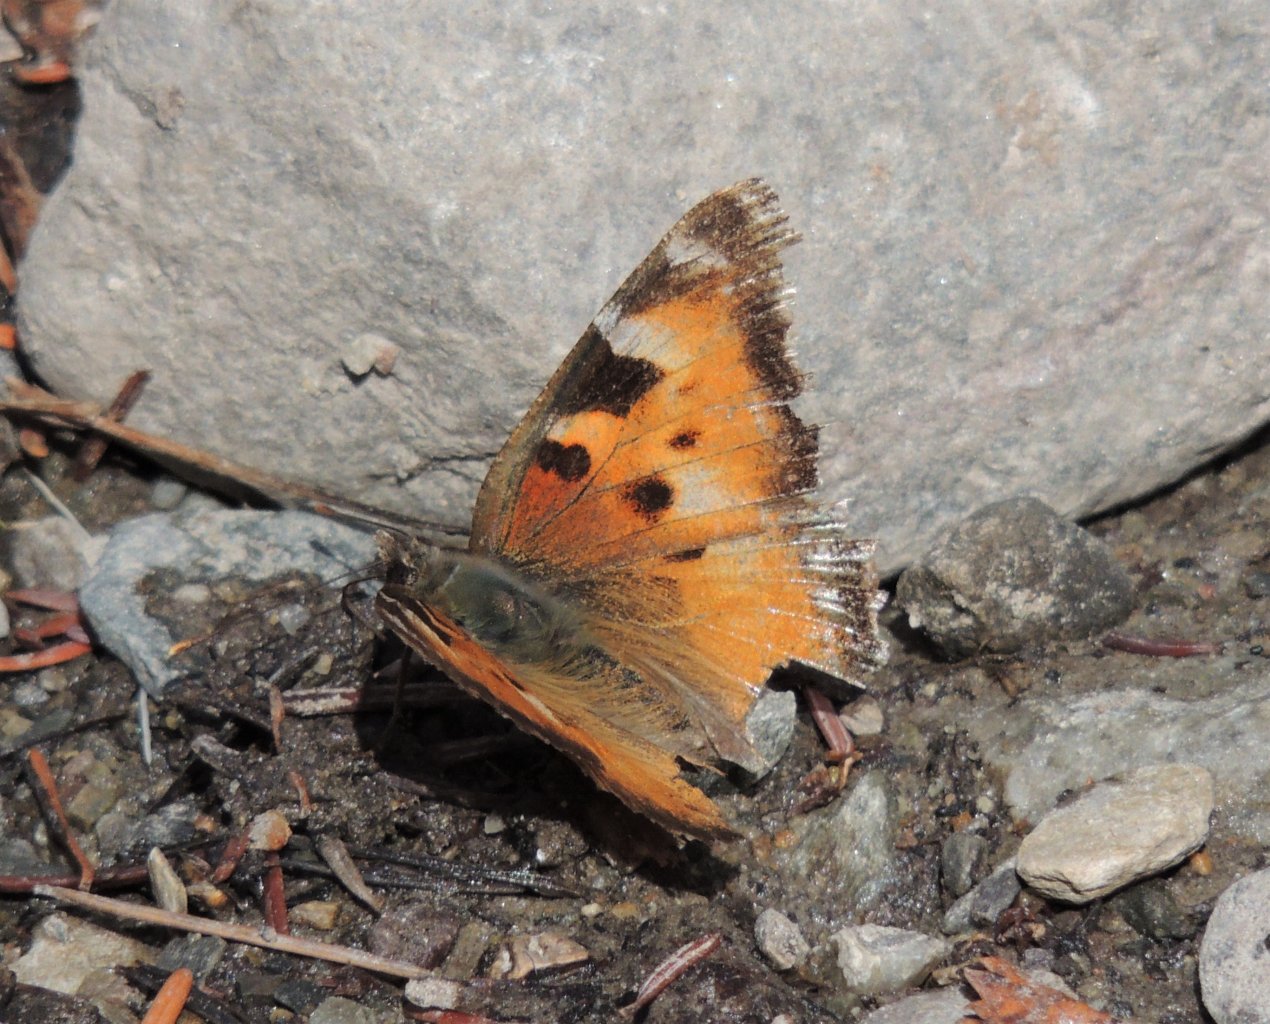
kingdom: Animalia
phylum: Arthropoda
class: Insecta
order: Lepidoptera
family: Nymphalidae
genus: Nymphalis
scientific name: Nymphalis californica
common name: California Tortoiseshell
